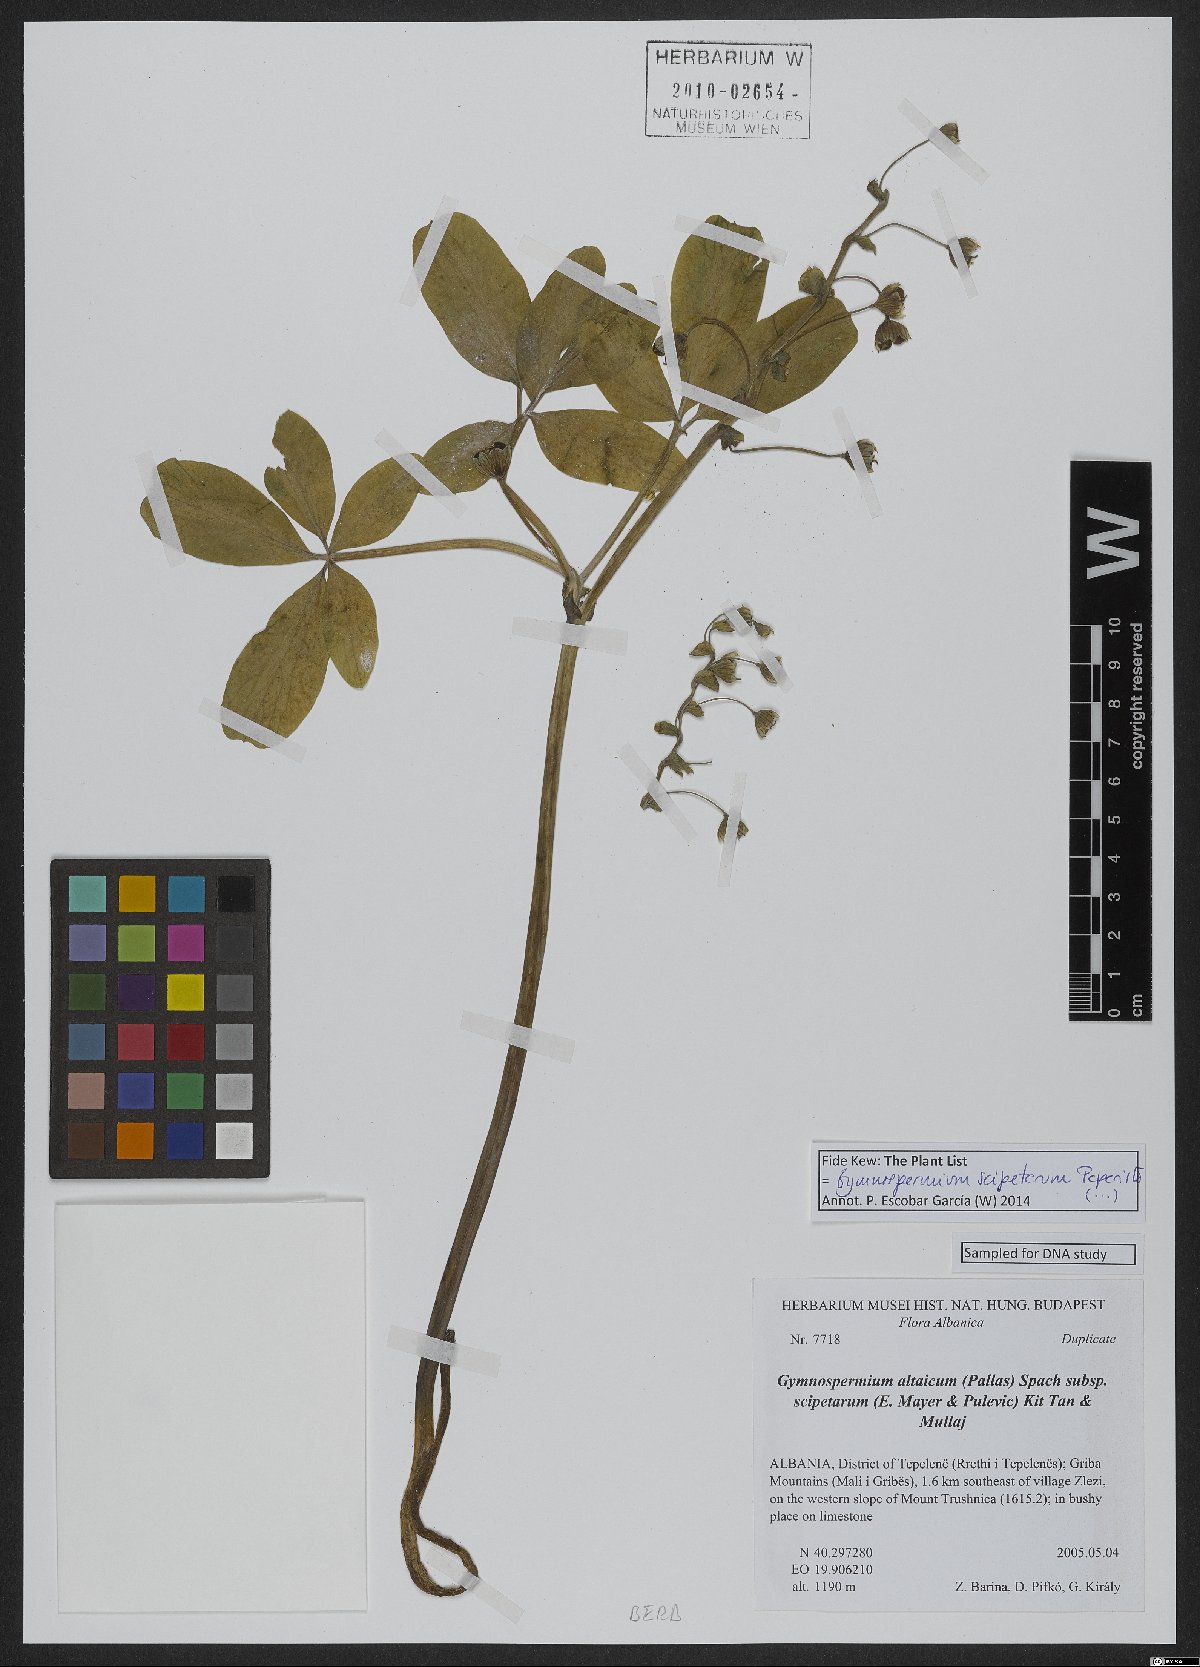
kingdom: Plantae
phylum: Tracheophyta
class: Magnoliopsida
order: Ranunculales
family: Berberidaceae
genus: Gymnospermium
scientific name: Gymnospermium scipetarum
